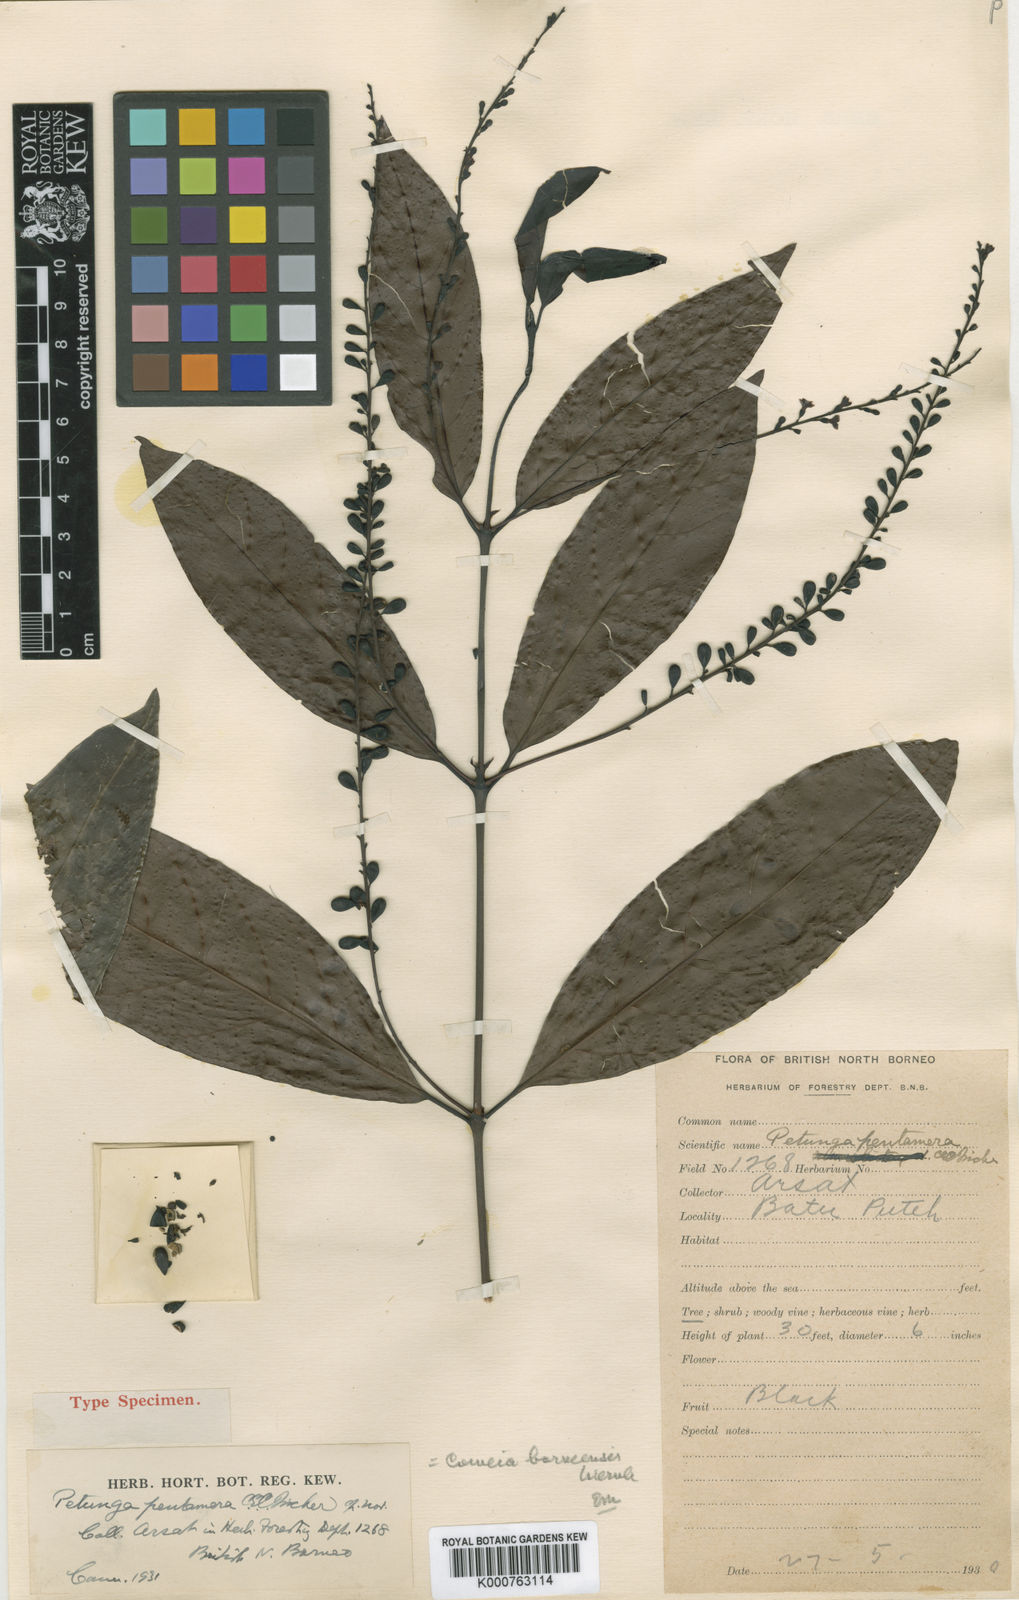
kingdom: Plantae
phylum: Tracheophyta
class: Magnoliopsida
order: Gentianales
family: Rubiaceae
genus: Cowiea
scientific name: Cowiea borneensis
